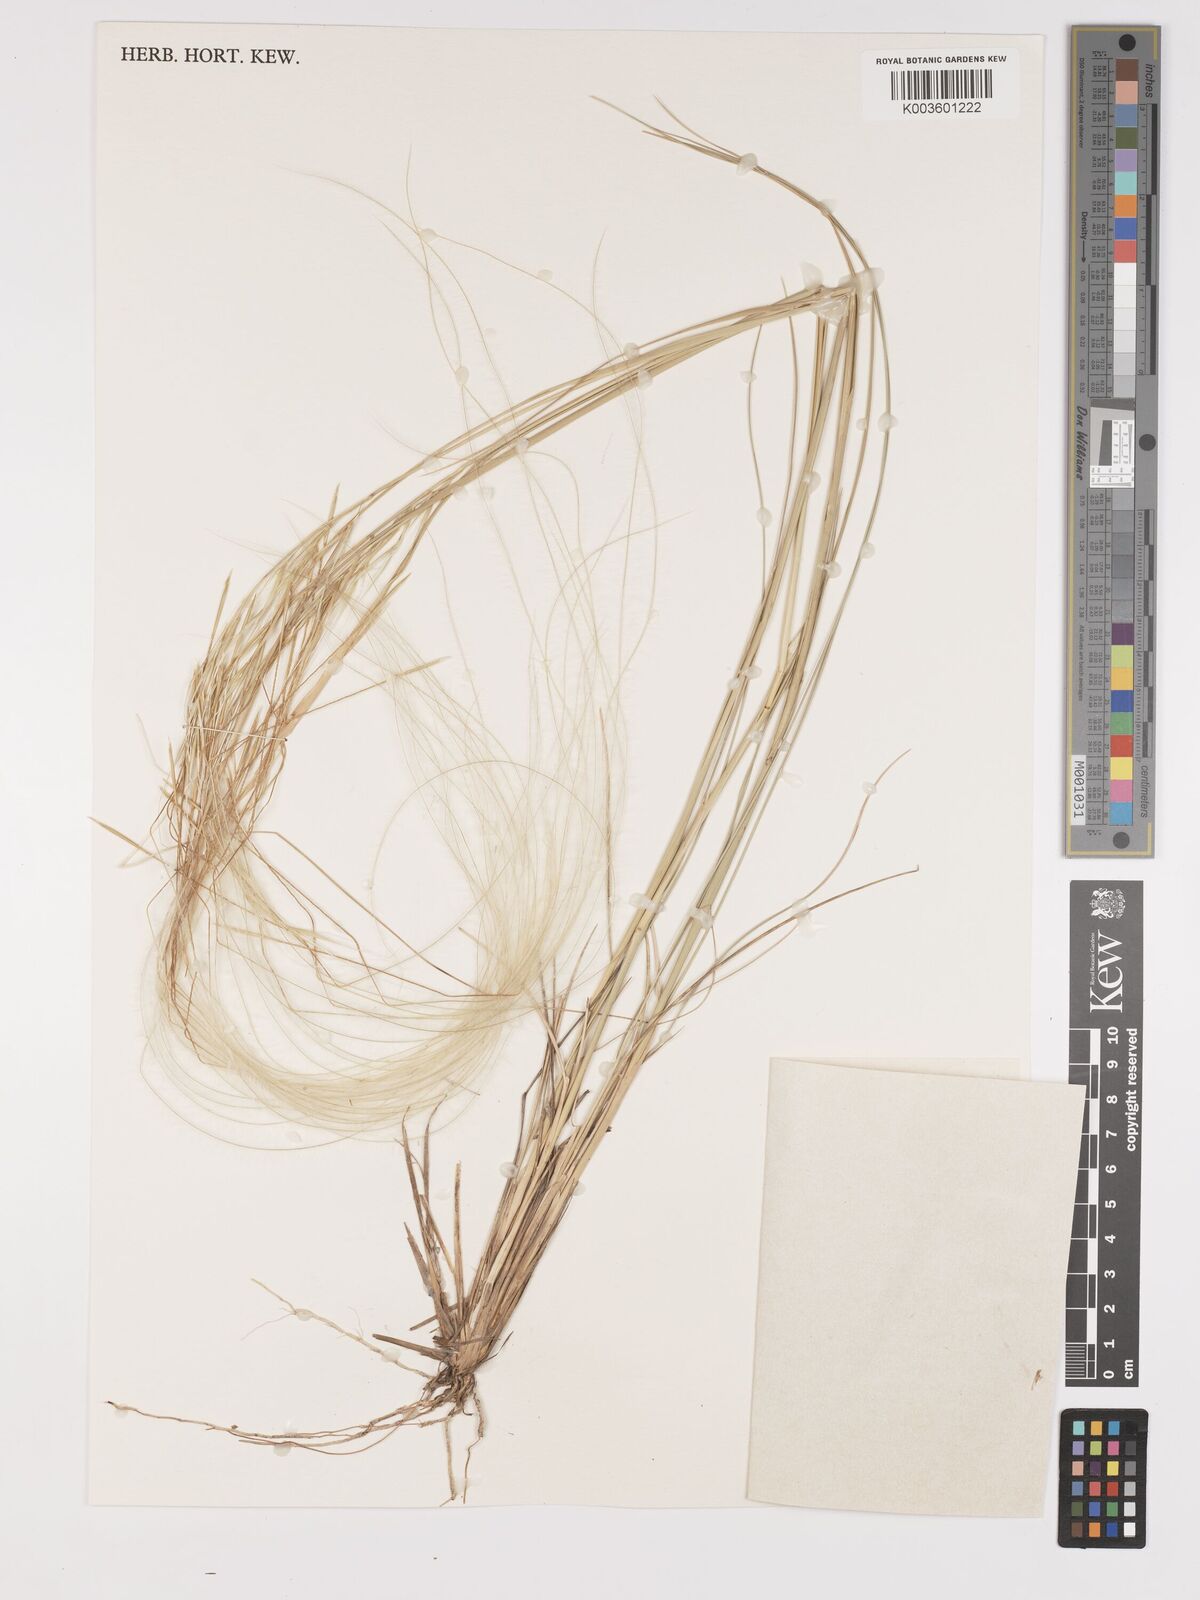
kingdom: Plantae
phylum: Tracheophyta
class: Liliopsida
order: Poales
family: Poaceae
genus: Stipa
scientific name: Stipa pennata
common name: European feather grass
